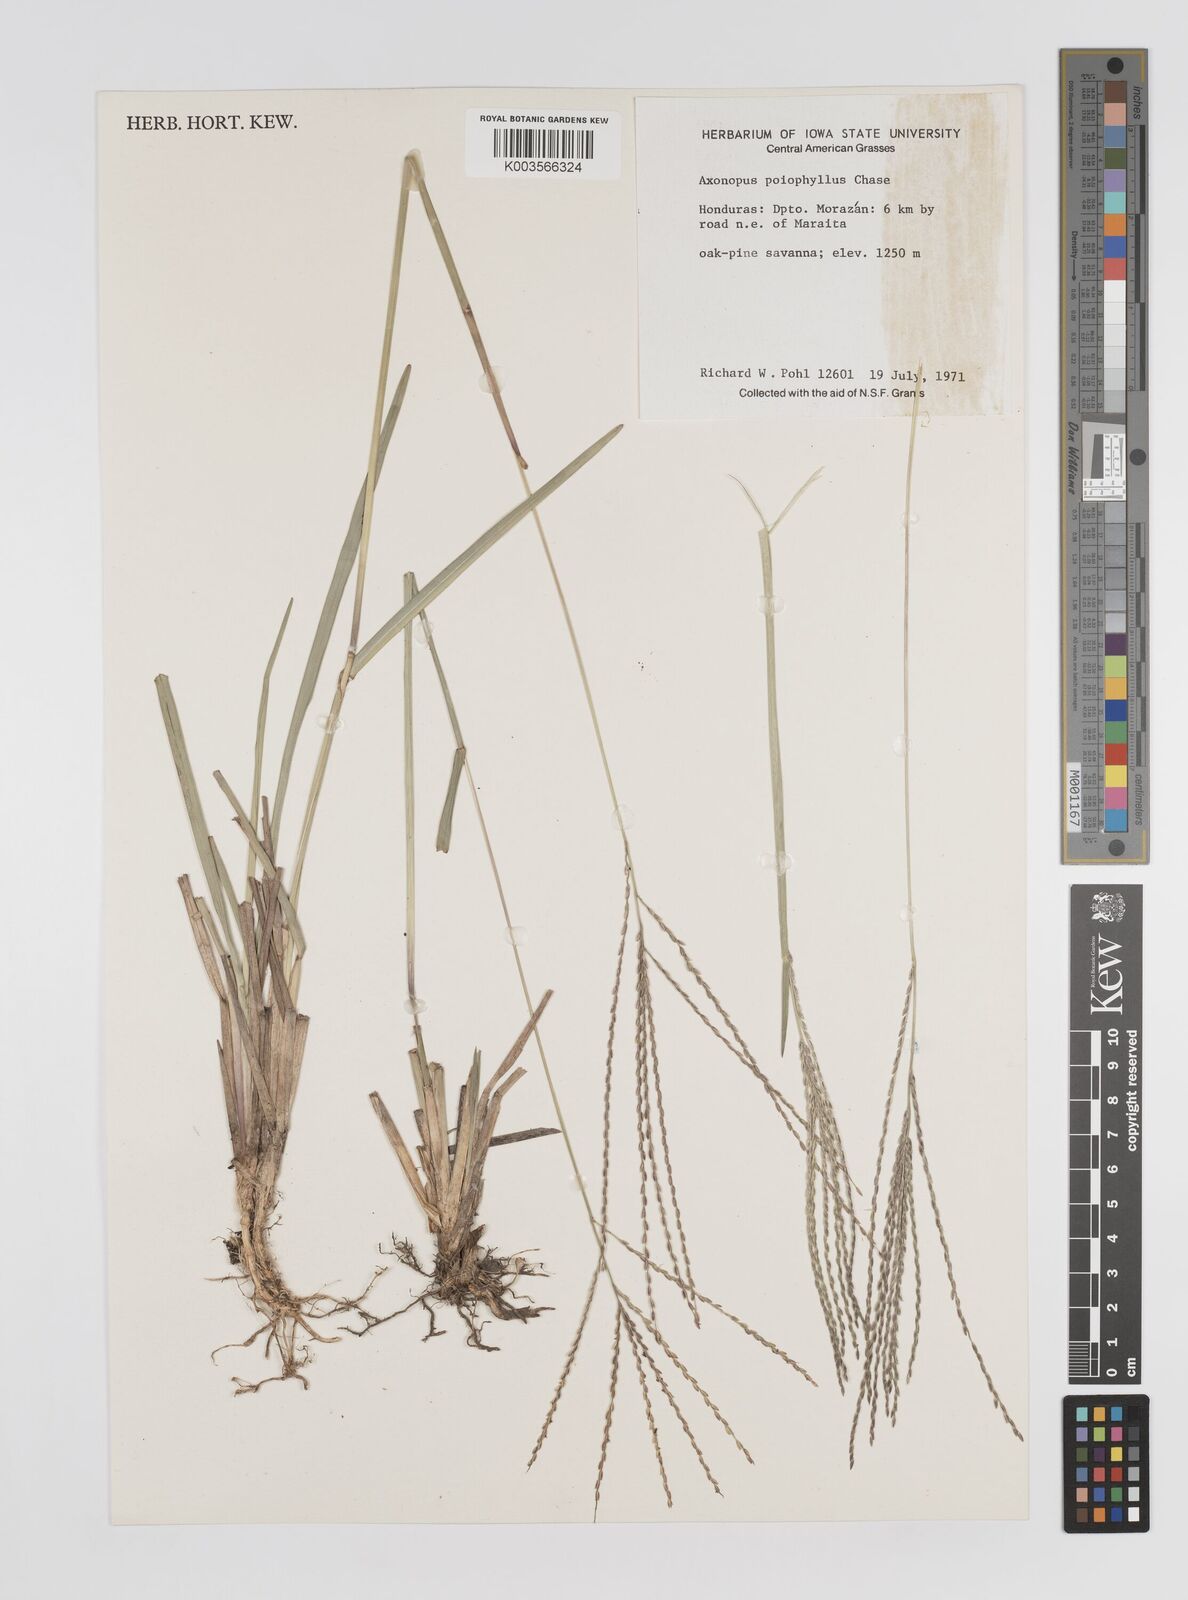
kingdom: Plantae
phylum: Tracheophyta
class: Liliopsida
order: Poales
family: Poaceae
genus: Axonopus
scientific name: Axonopus
